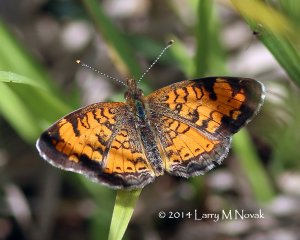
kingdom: Animalia
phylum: Arthropoda
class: Insecta
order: Lepidoptera
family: Nymphalidae
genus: Phyciodes
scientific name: Phyciodes tharos
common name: Northern Crescent
